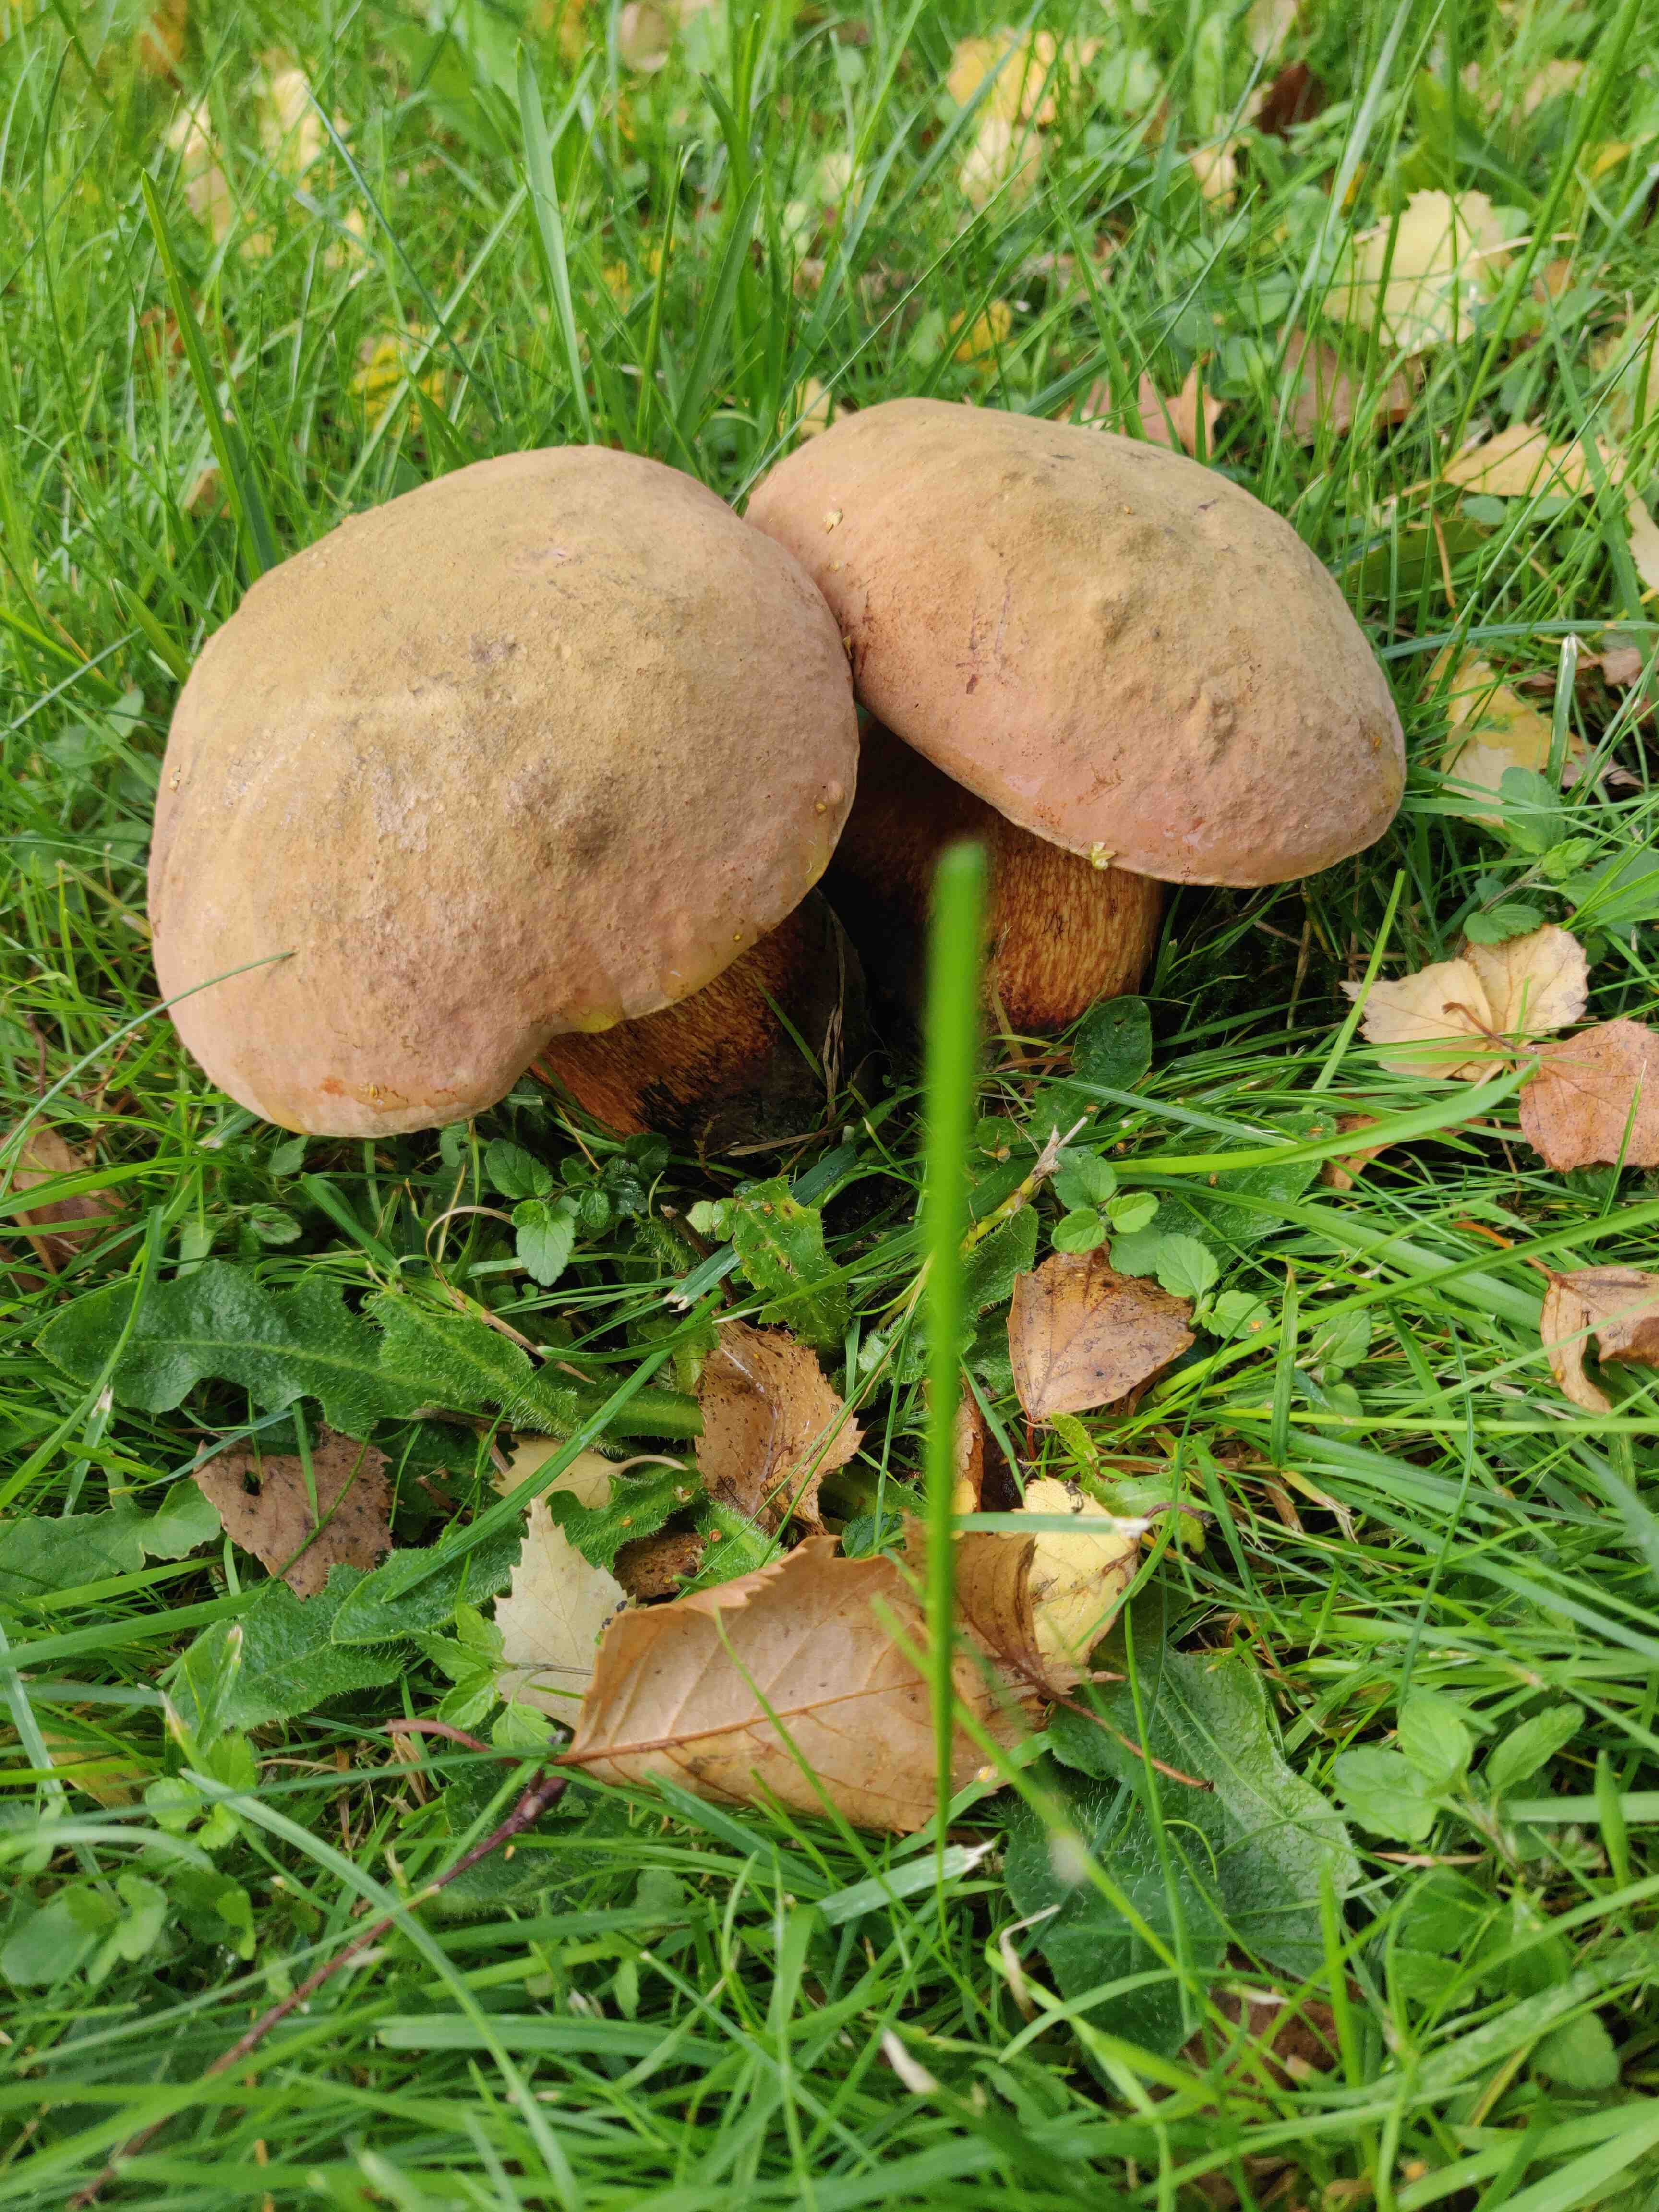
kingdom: Fungi
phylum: Basidiomycota
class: Agaricomycetes
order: Boletales
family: Boletaceae
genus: Suillellus
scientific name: Suillellus luridus
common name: netstokket indigorørhat
